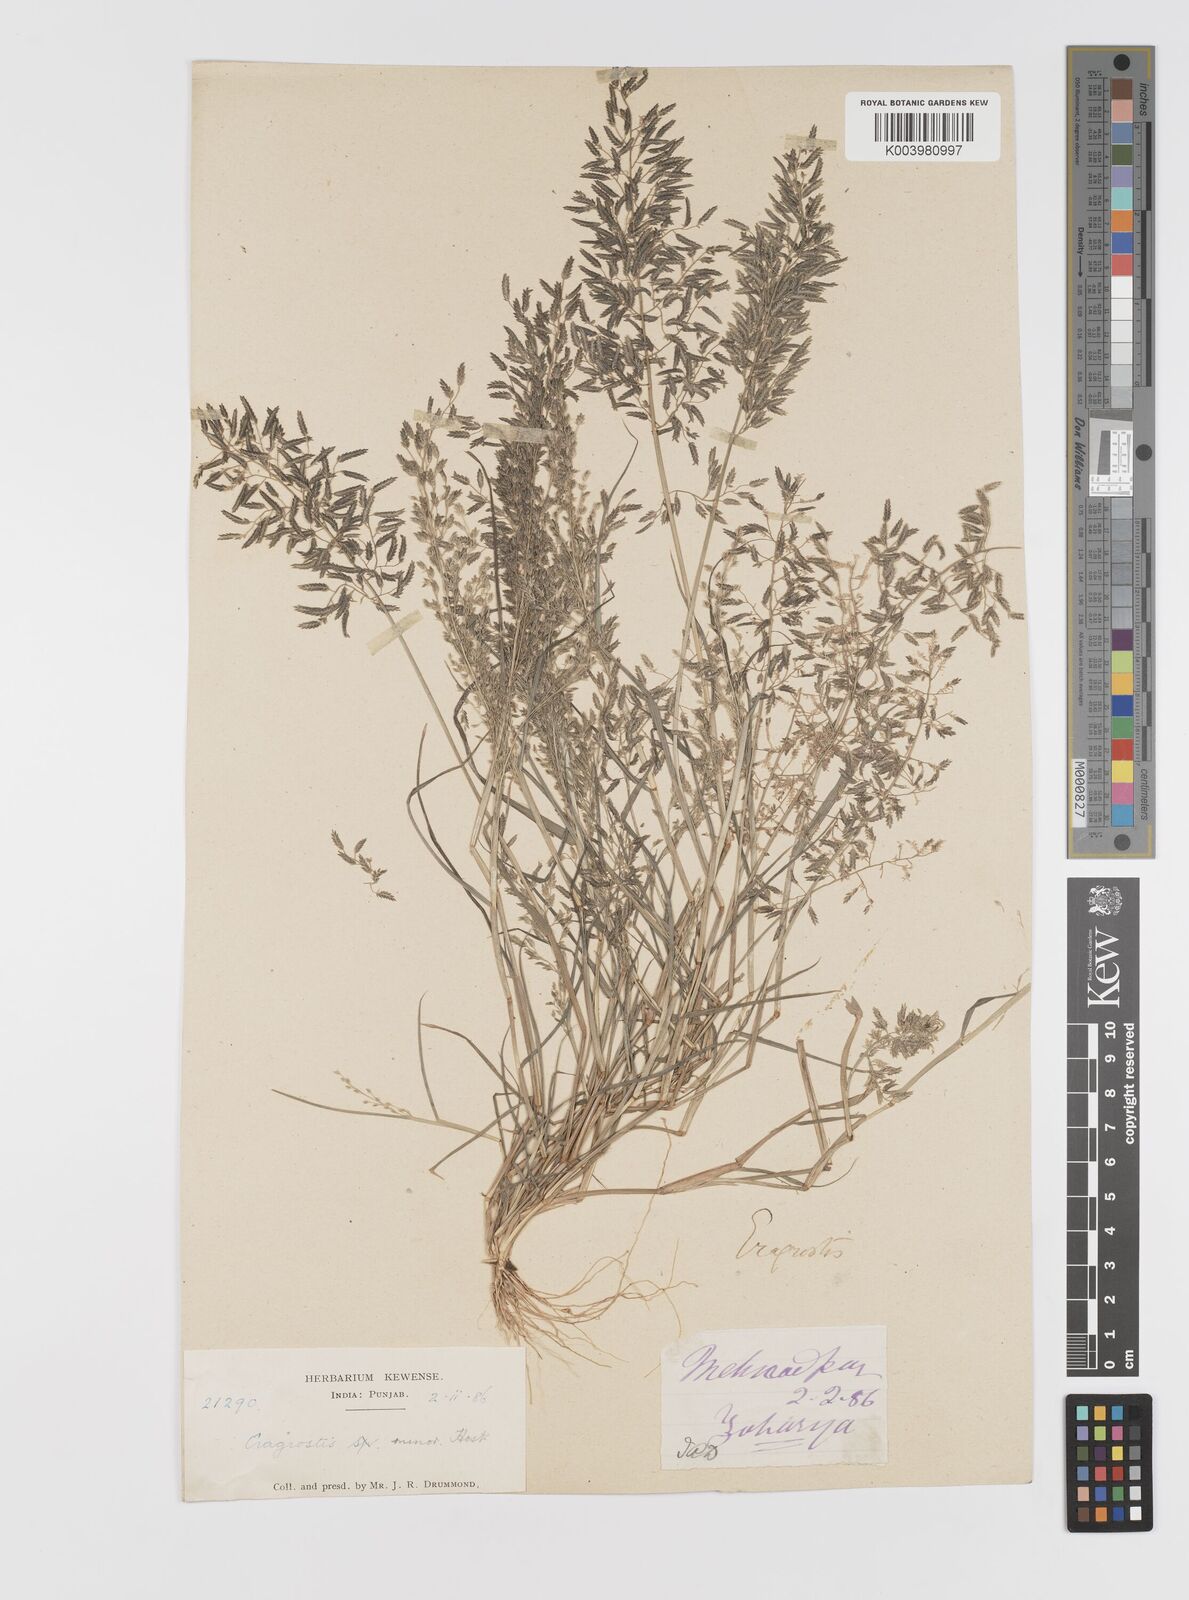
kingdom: Plantae
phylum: Tracheophyta
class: Liliopsida
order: Poales
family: Poaceae
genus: Eragrostis
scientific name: Eragrostis minor
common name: Small love-grass
